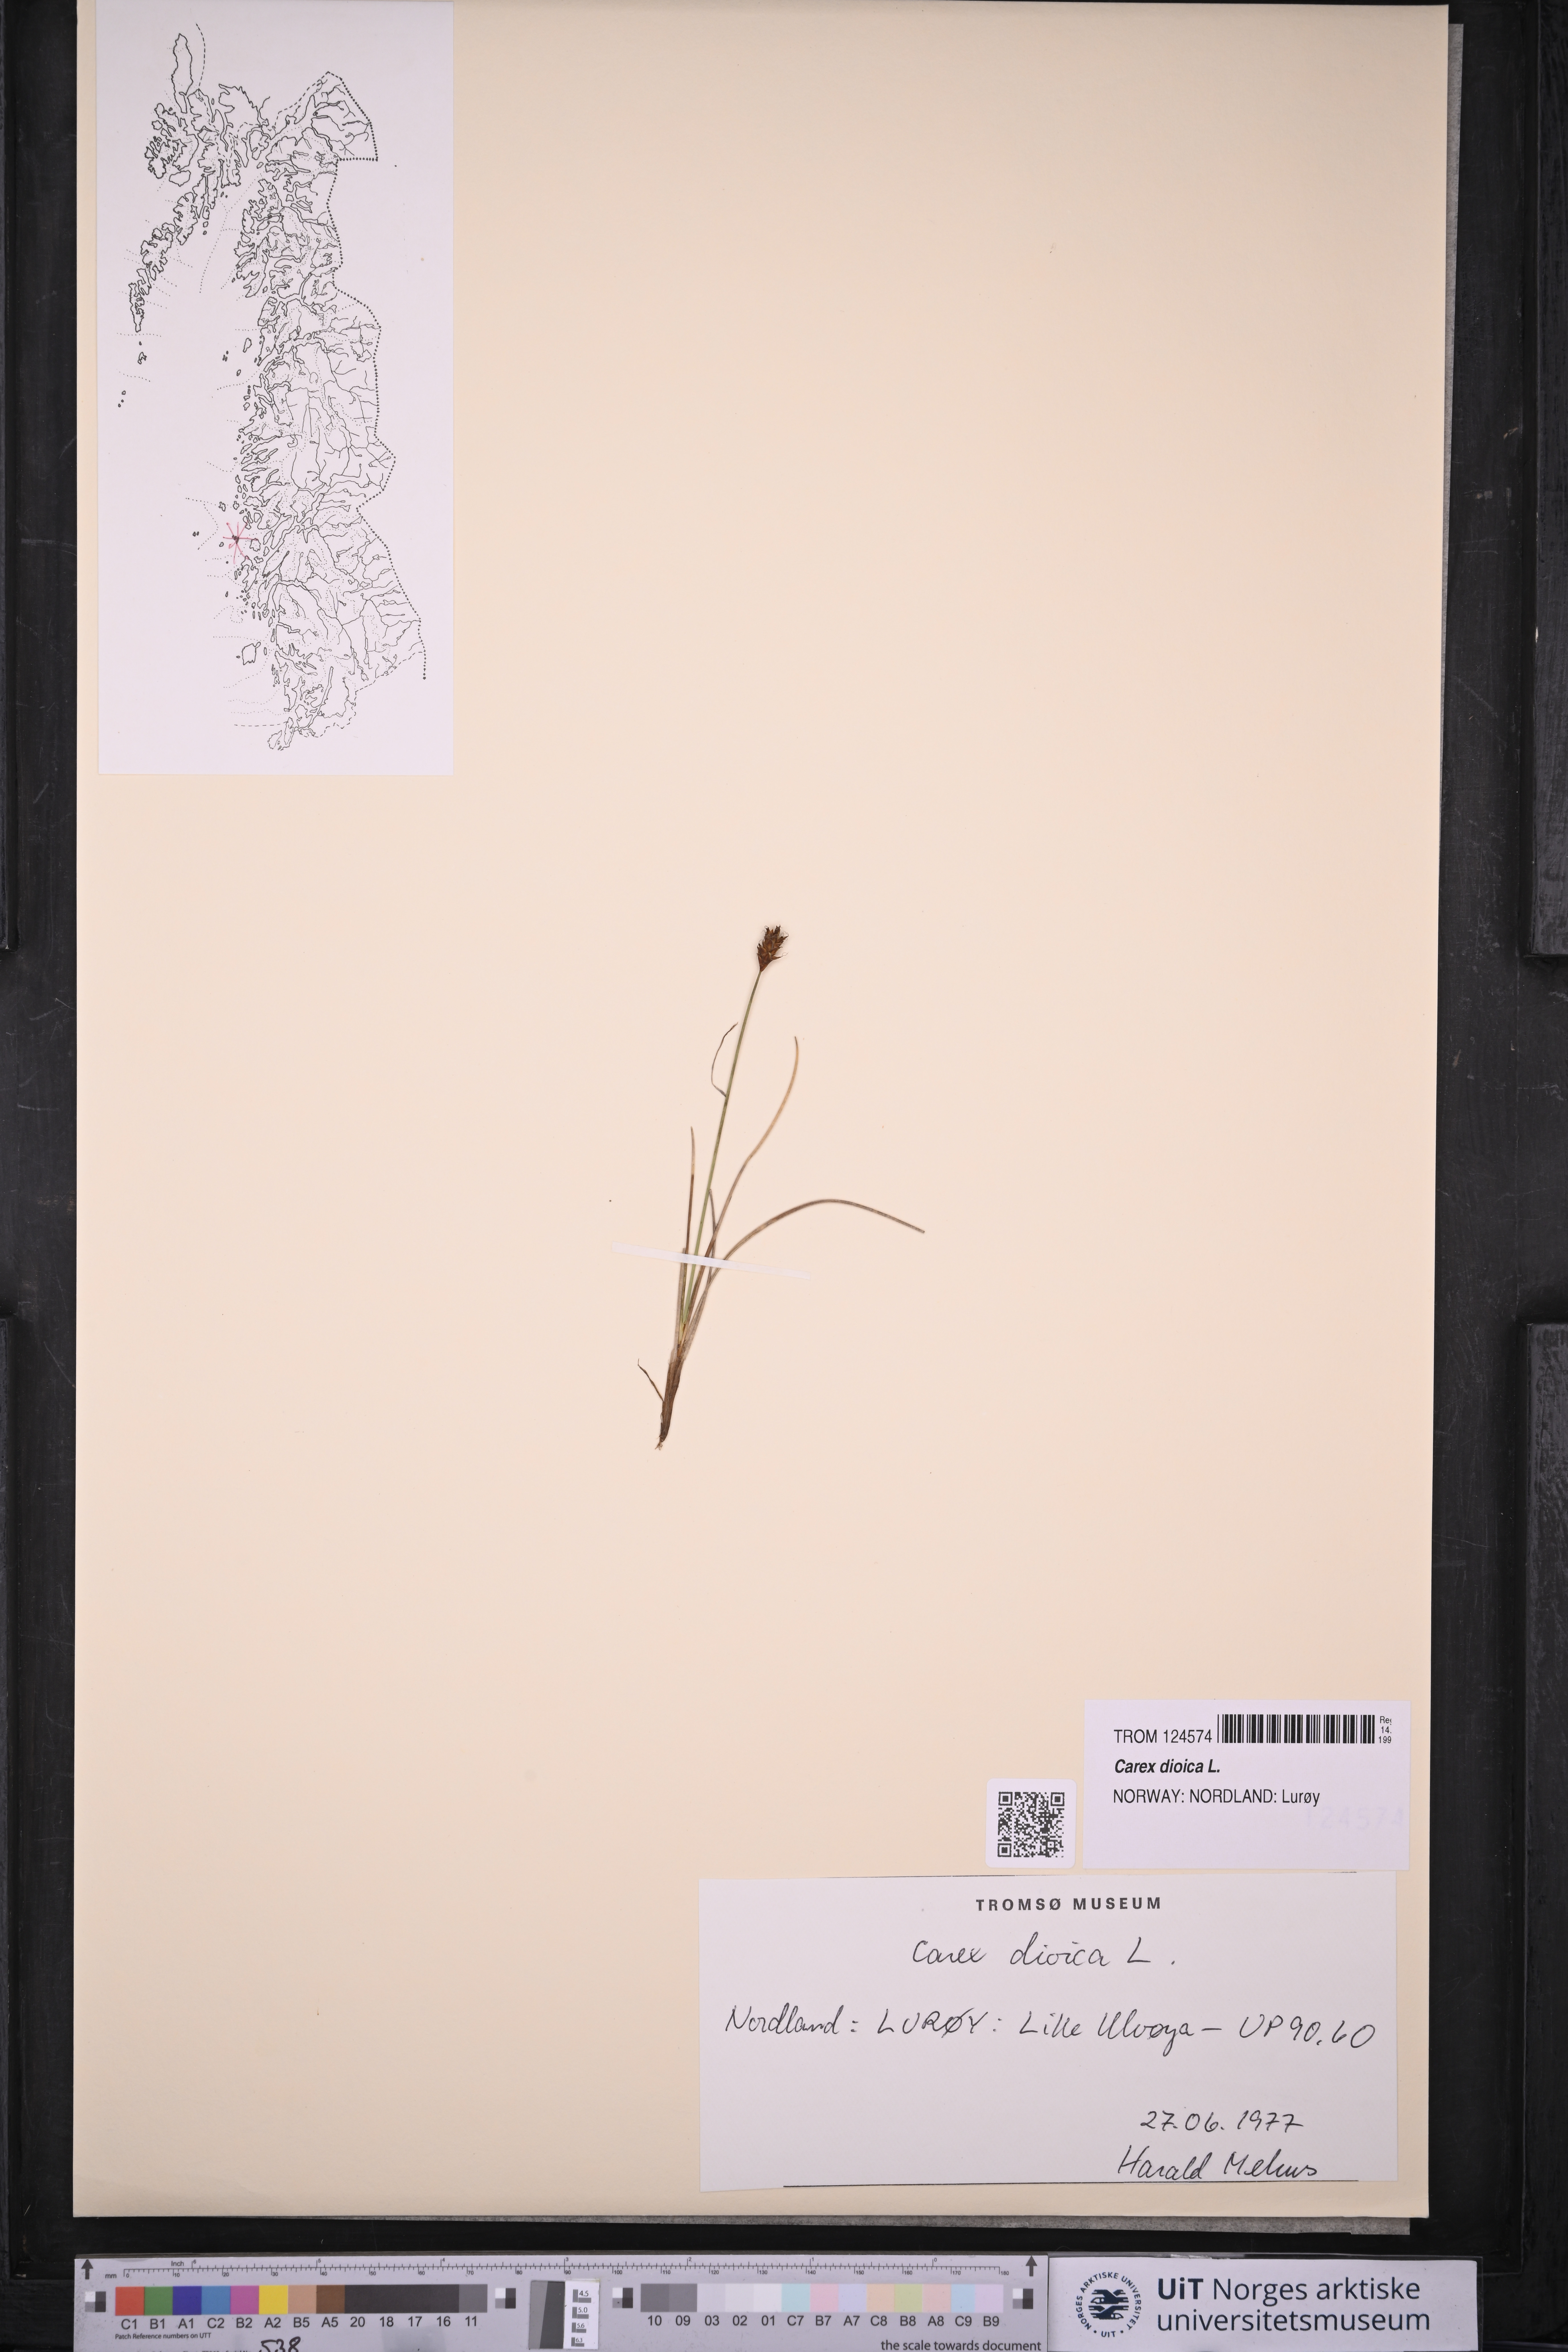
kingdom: Plantae
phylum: Tracheophyta
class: Liliopsida
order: Poales
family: Cyperaceae
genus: Carex
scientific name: Carex dioica
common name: Dioecious sedge
